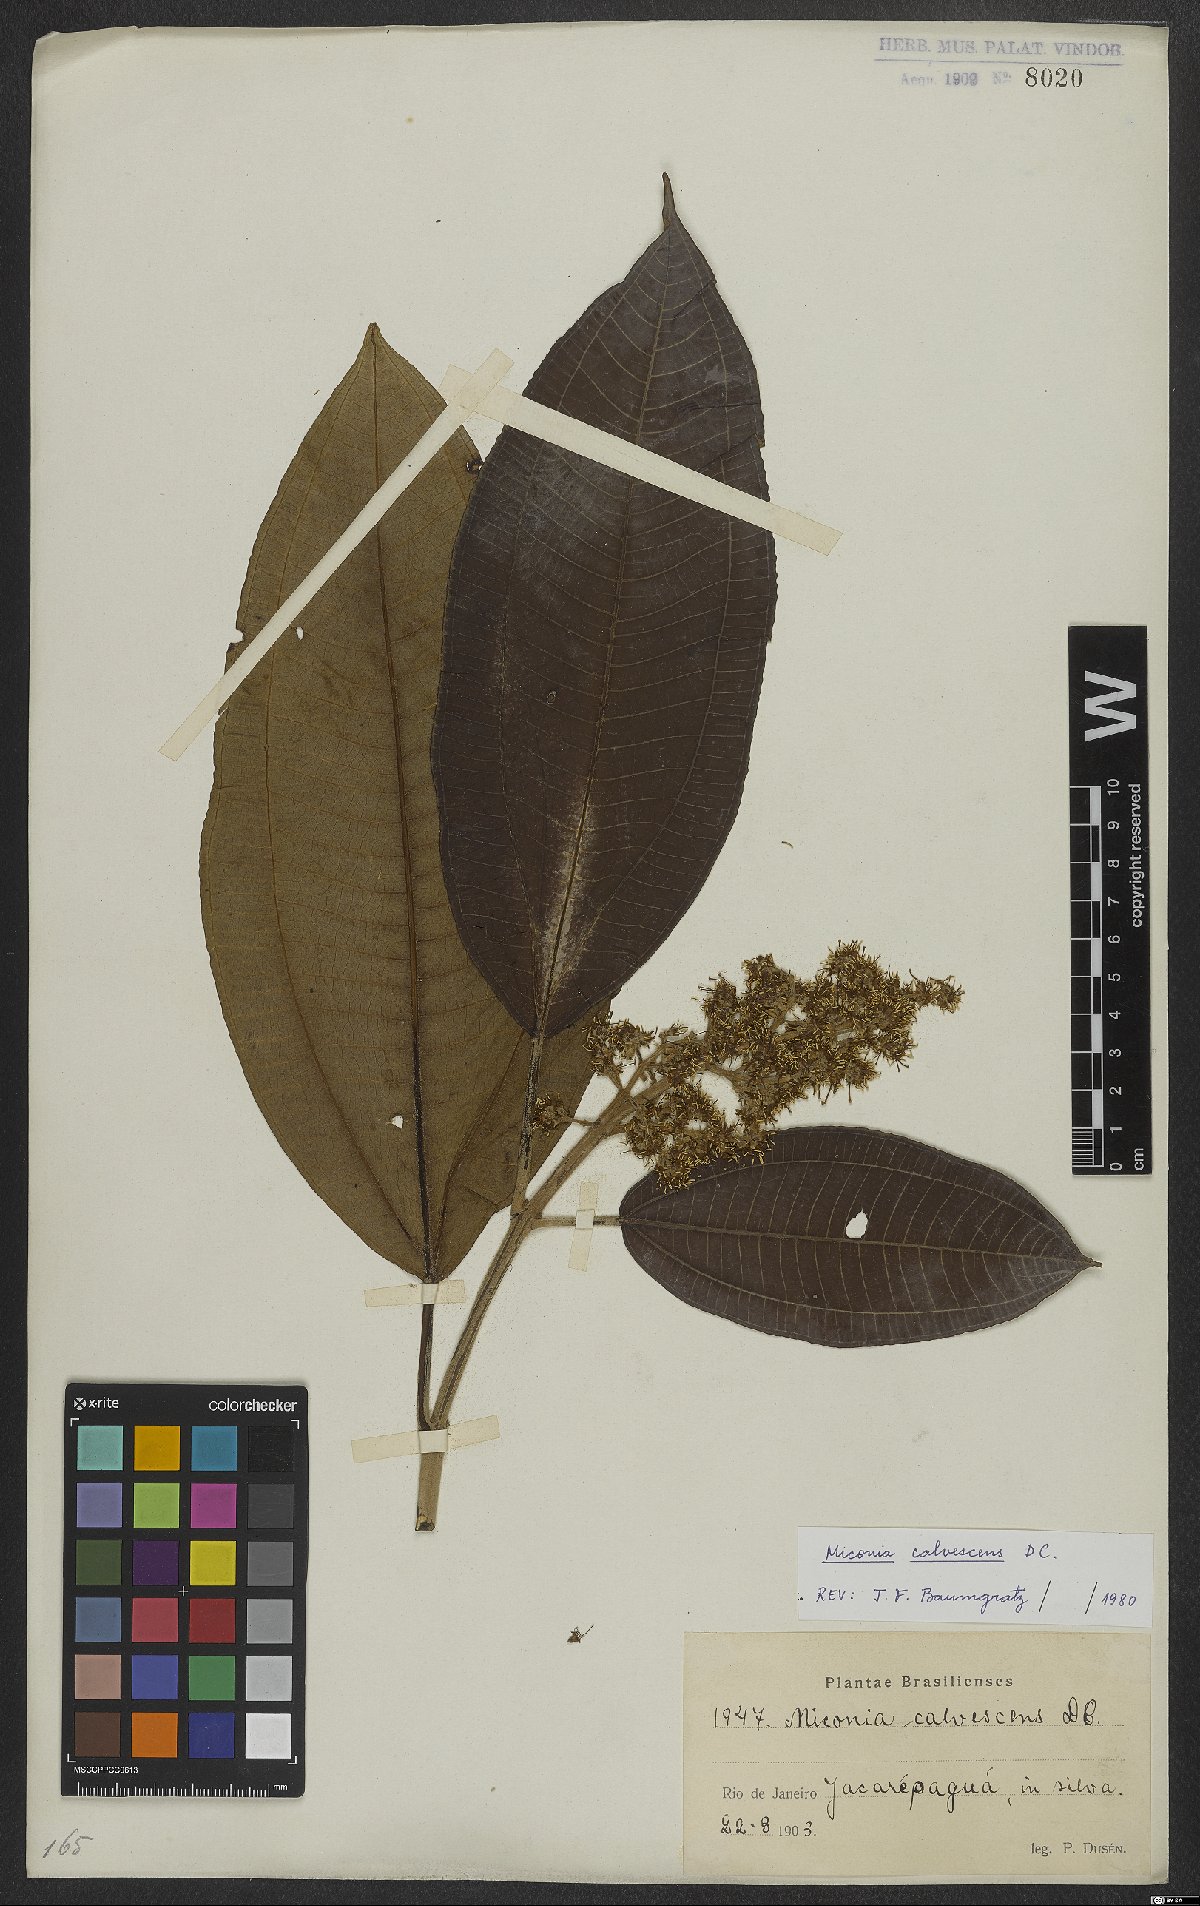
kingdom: Plantae
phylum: Tracheophyta
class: Magnoliopsida
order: Myrtales
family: Melastomataceae
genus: Miconia
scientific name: Miconia calvescens
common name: Purple plague
